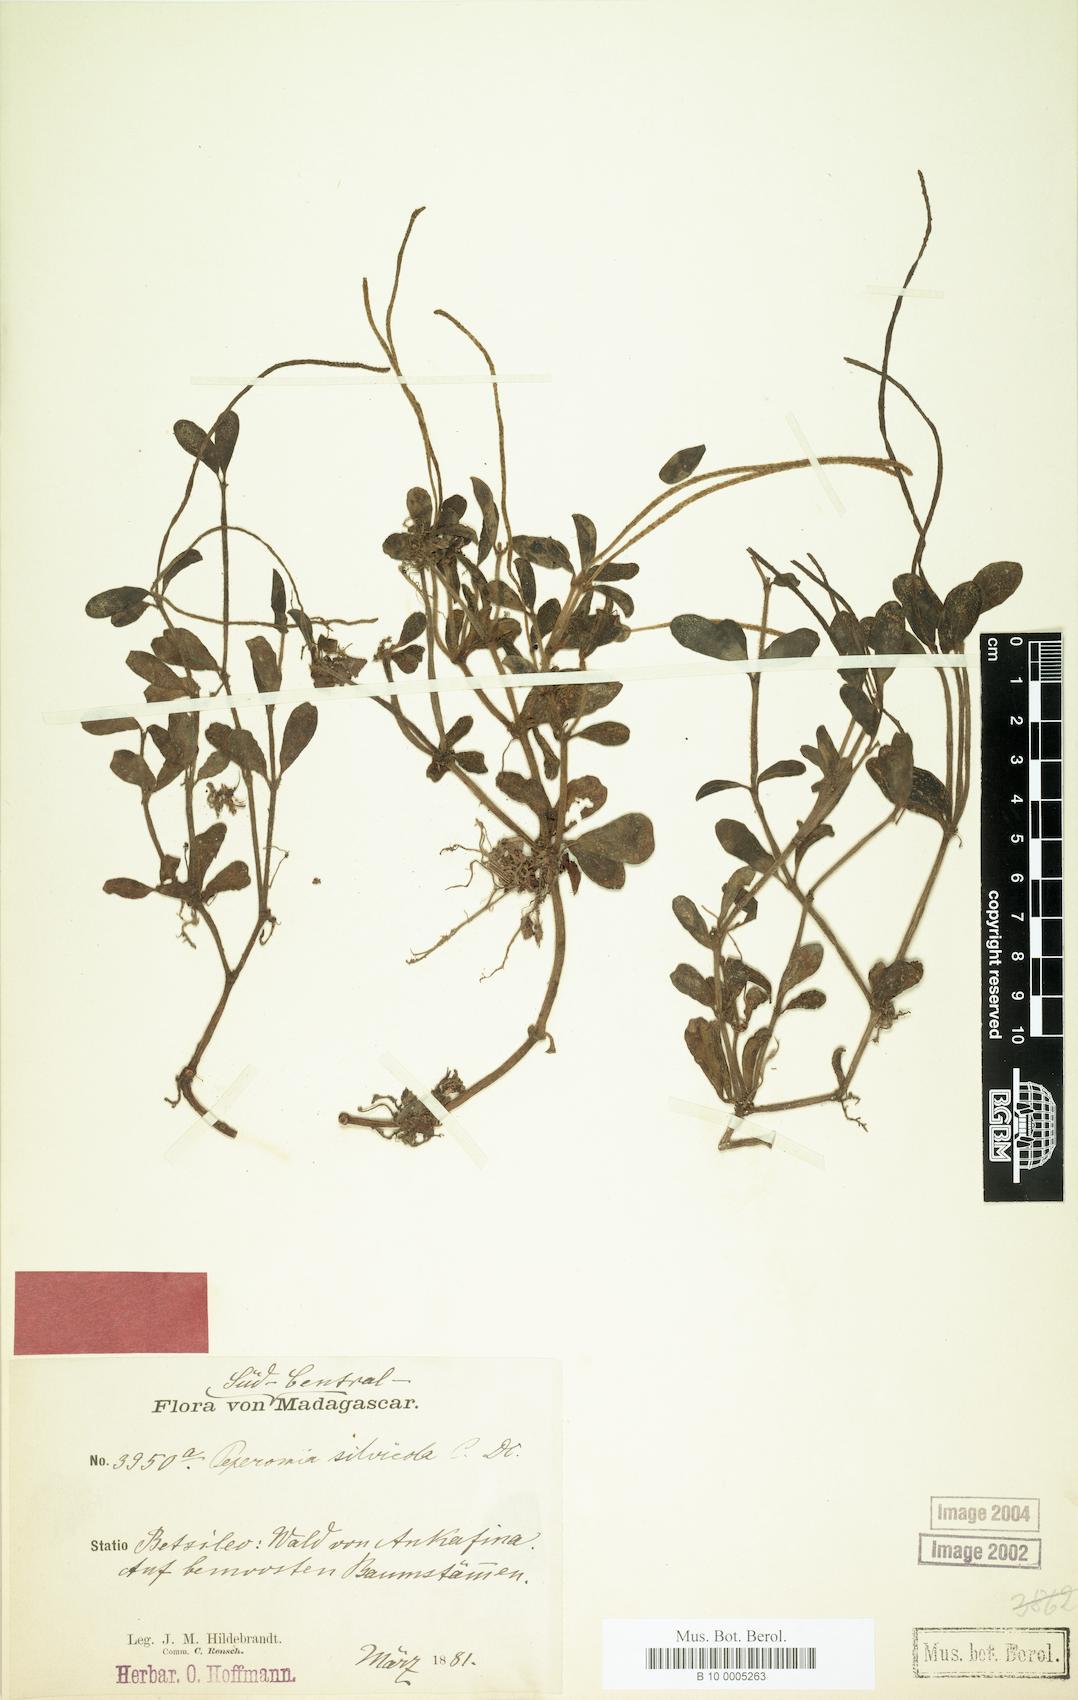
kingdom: Plantae
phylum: Tracheophyta
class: Magnoliopsida
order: Piperales
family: Piperaceae
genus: Peperomia
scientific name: Peperomia silvicola
